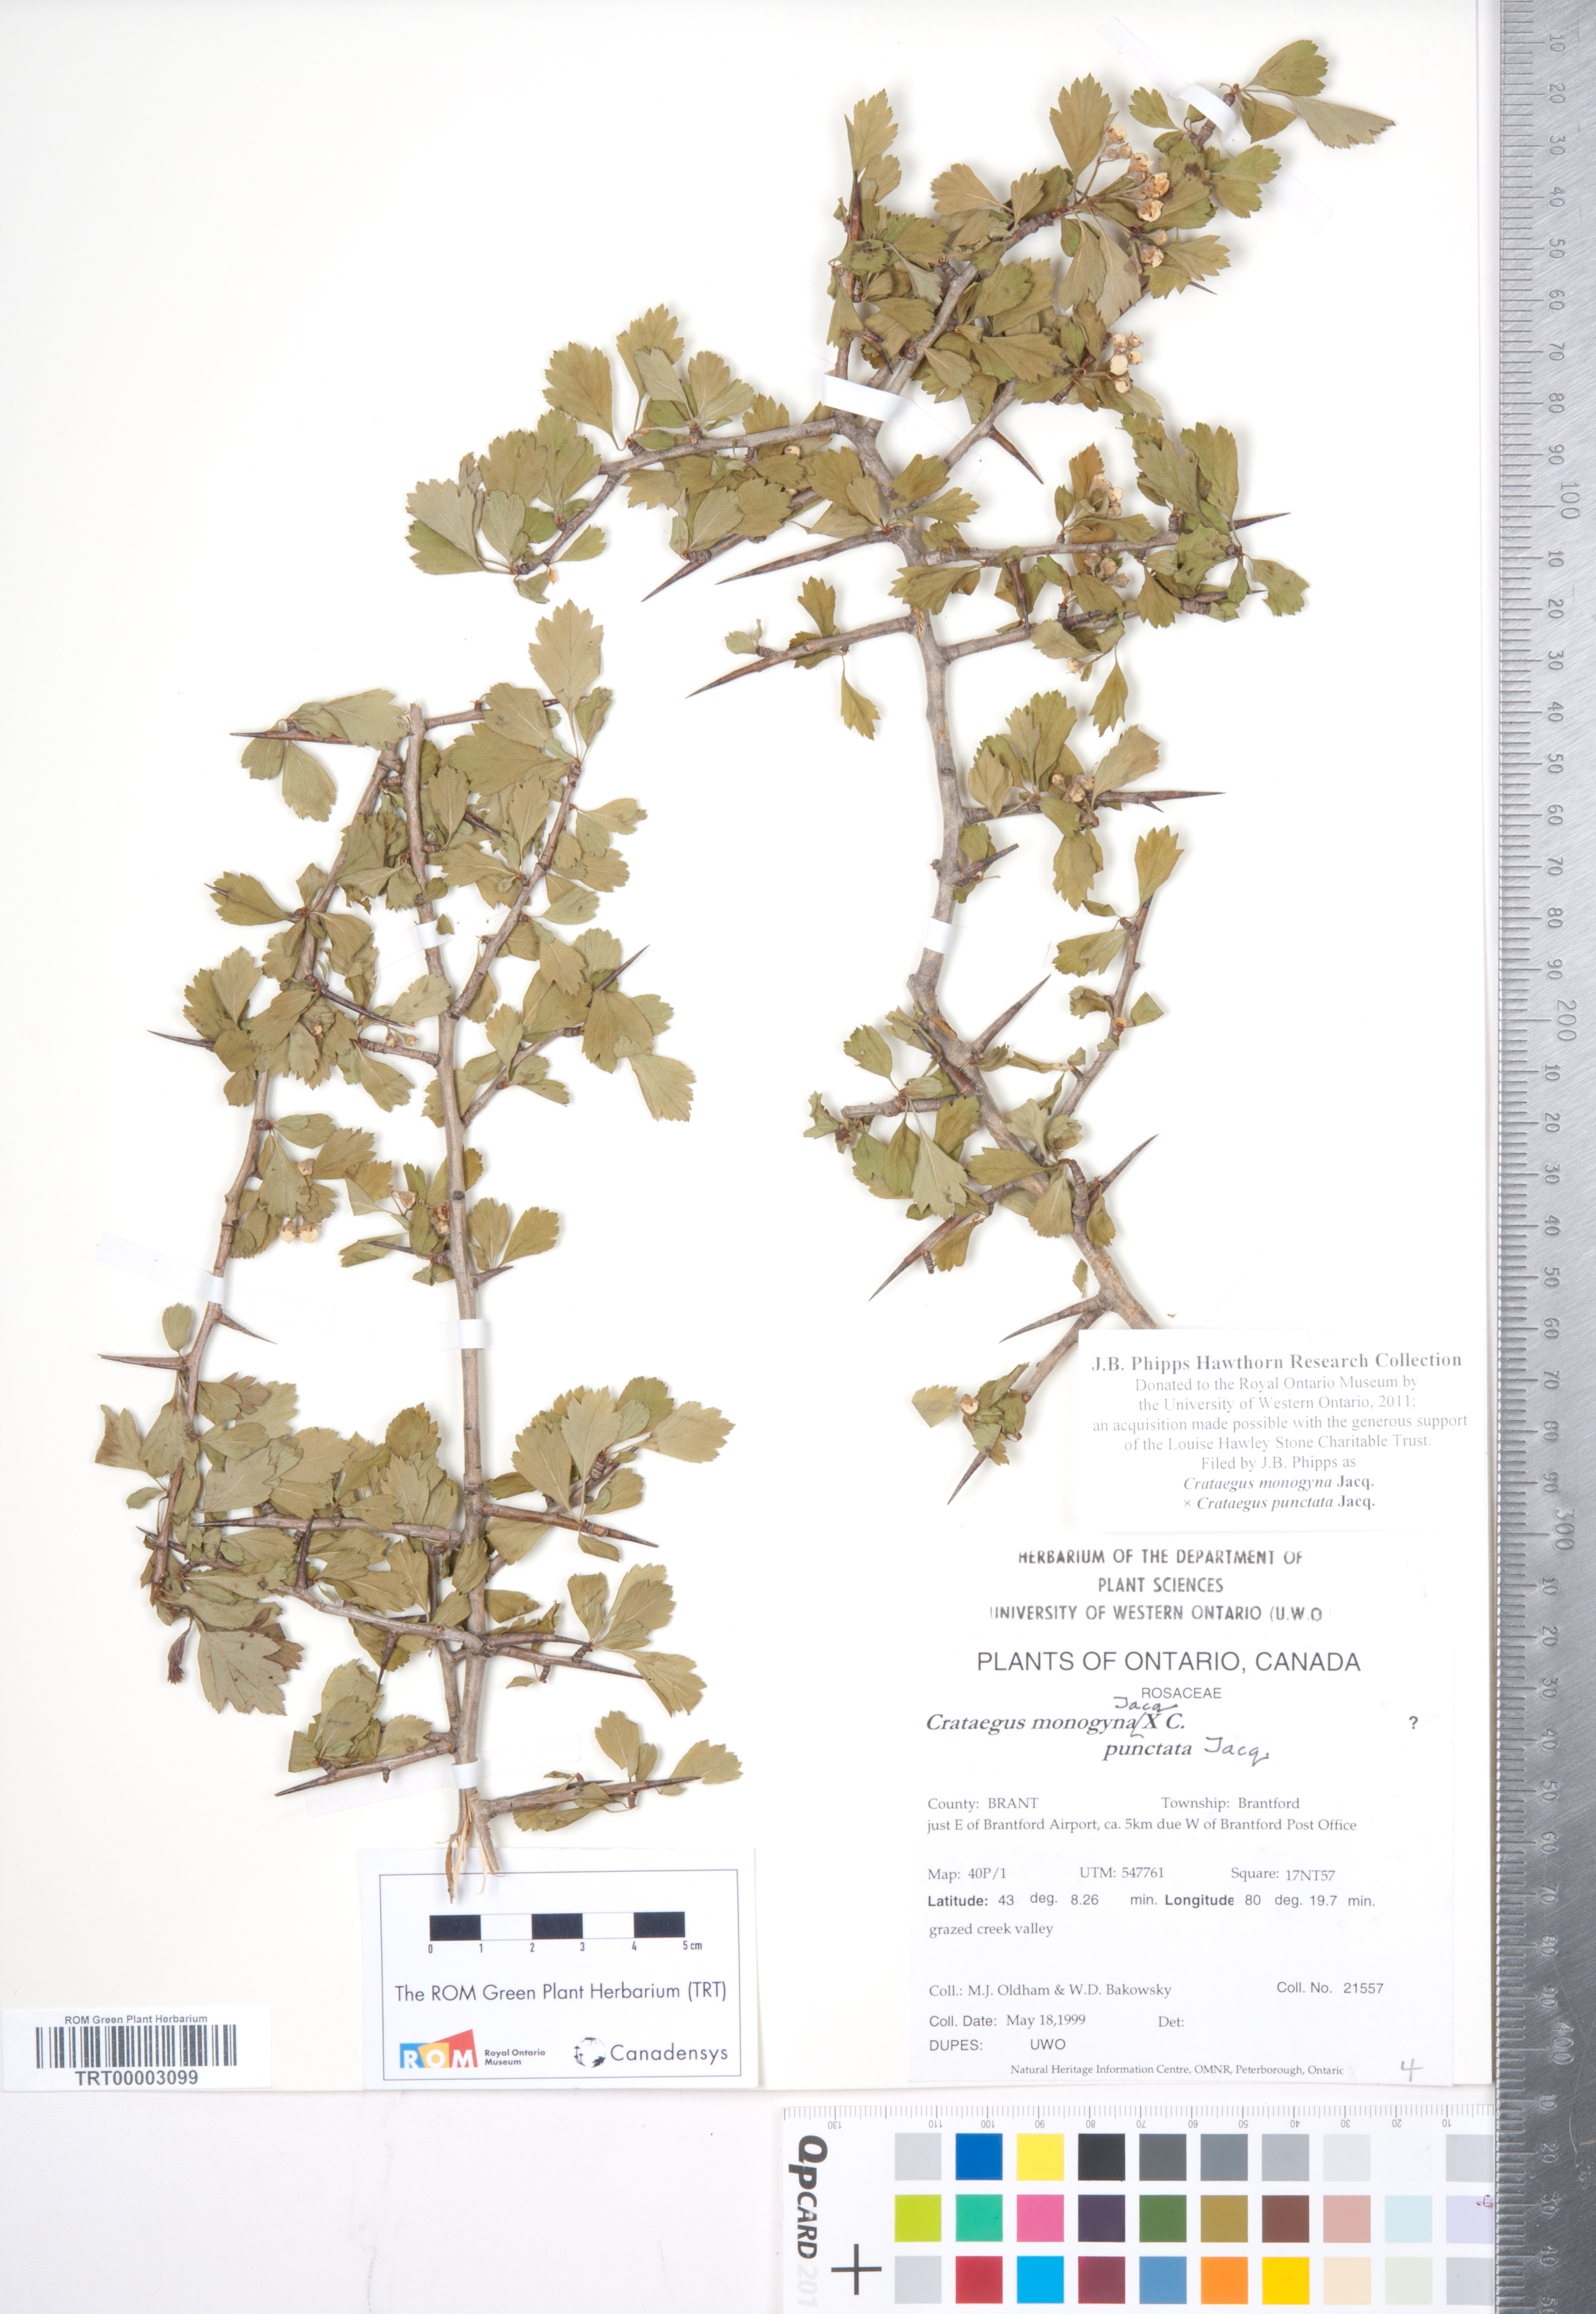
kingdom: Plantae
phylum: Tracheophyta
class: Magnoliopsida
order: Rosales
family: Rosaceae
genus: Crataegus
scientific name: Crataegus
